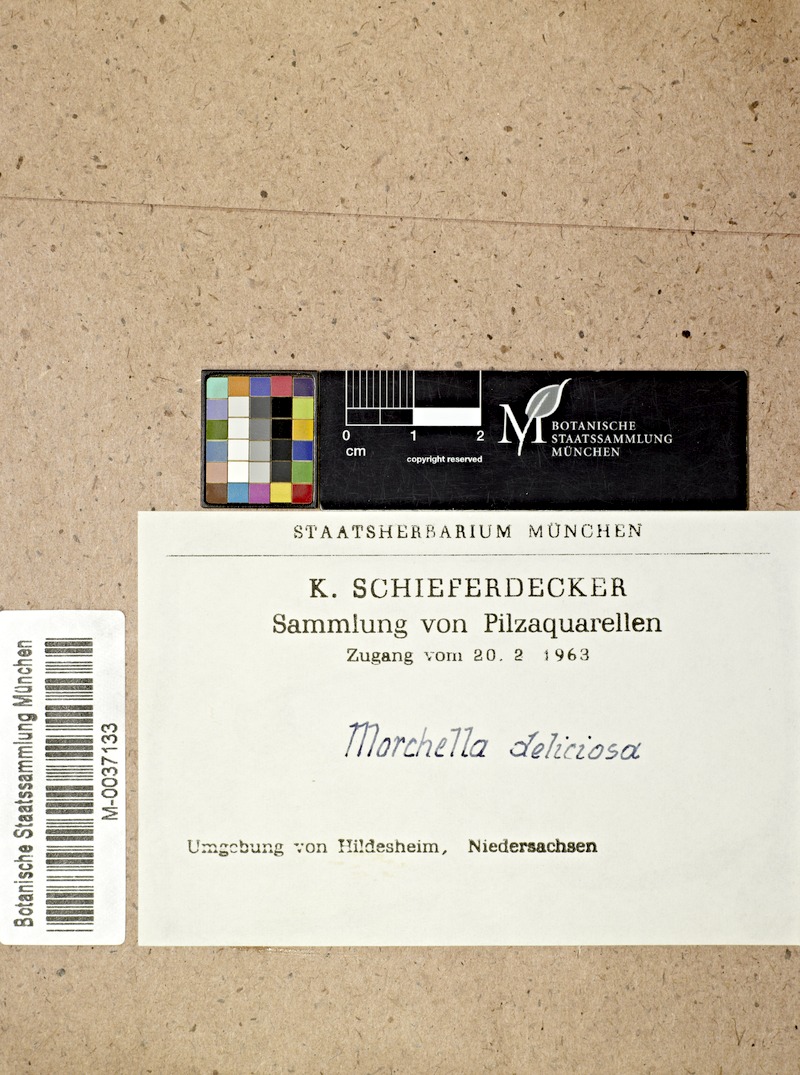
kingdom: Fungi
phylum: Ascomycota
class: Pezizomycetes
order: Pezizales
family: Morchellaceae
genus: Morchella
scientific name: Morchella deliciosa
